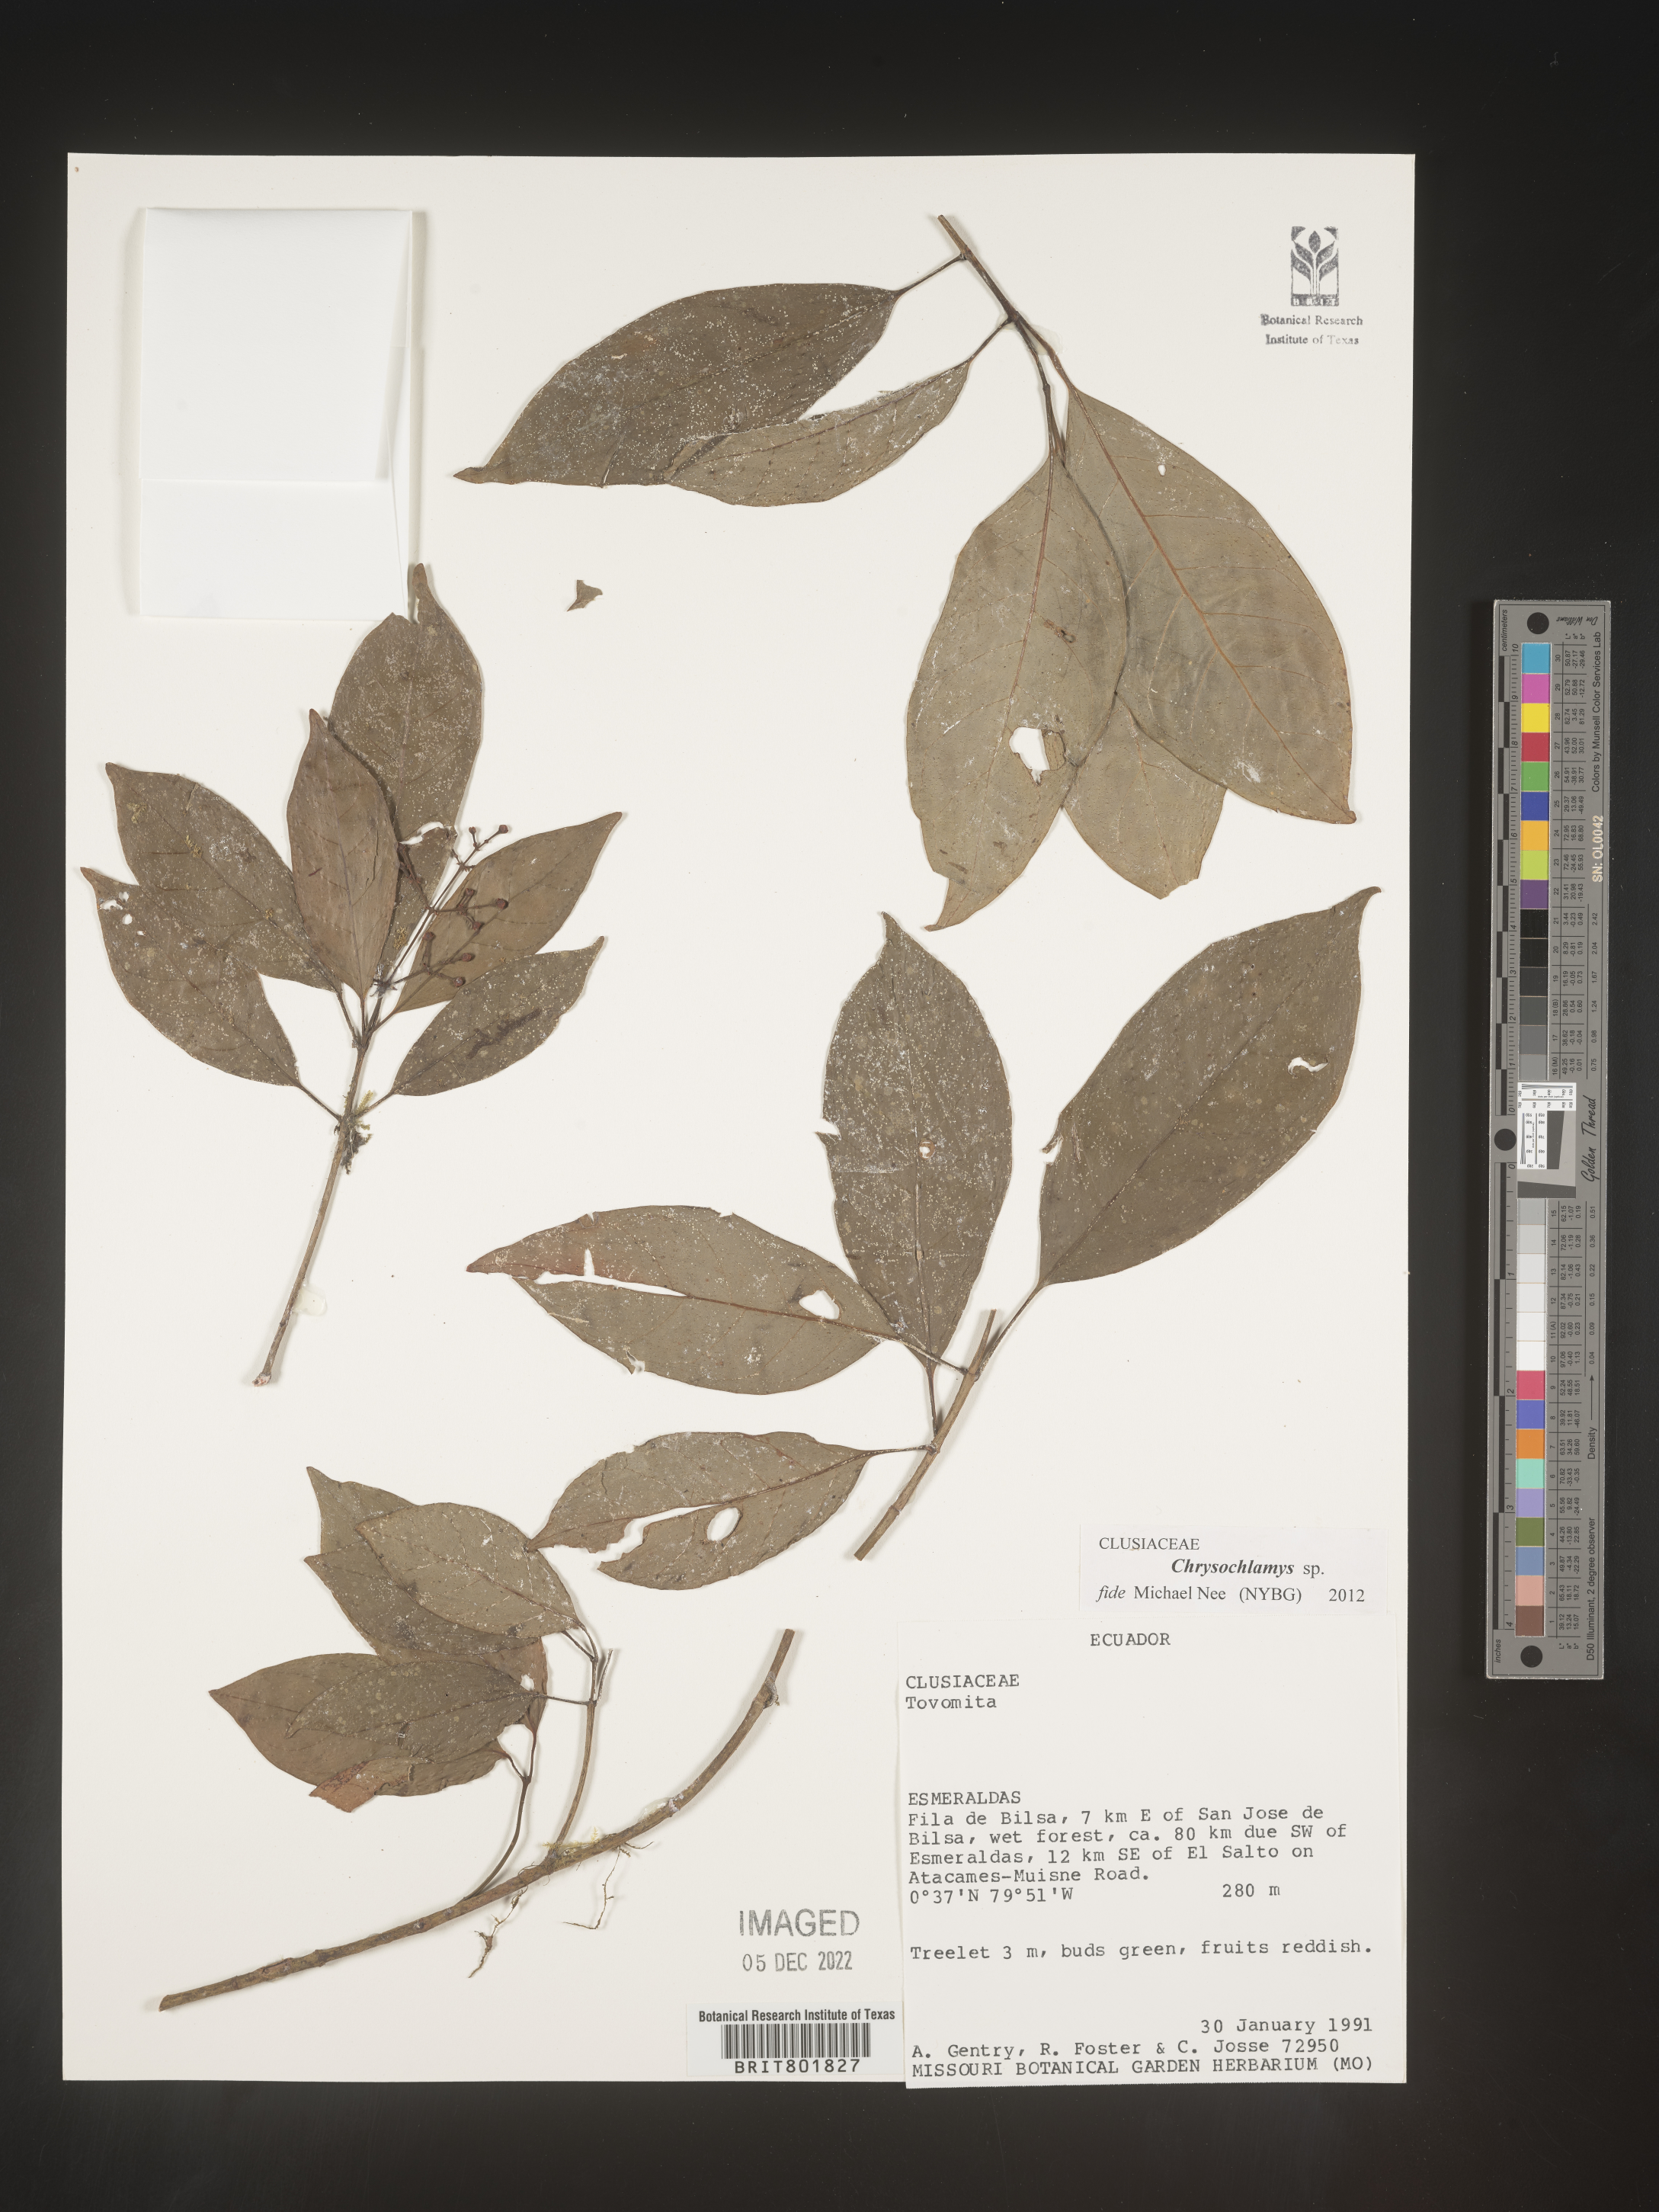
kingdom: Plantae
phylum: Tracheophyta
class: Magnoliopsida
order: Malpighiales
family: Clusiaceae
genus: Chrysochlamys
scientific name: Chrysochlamys
